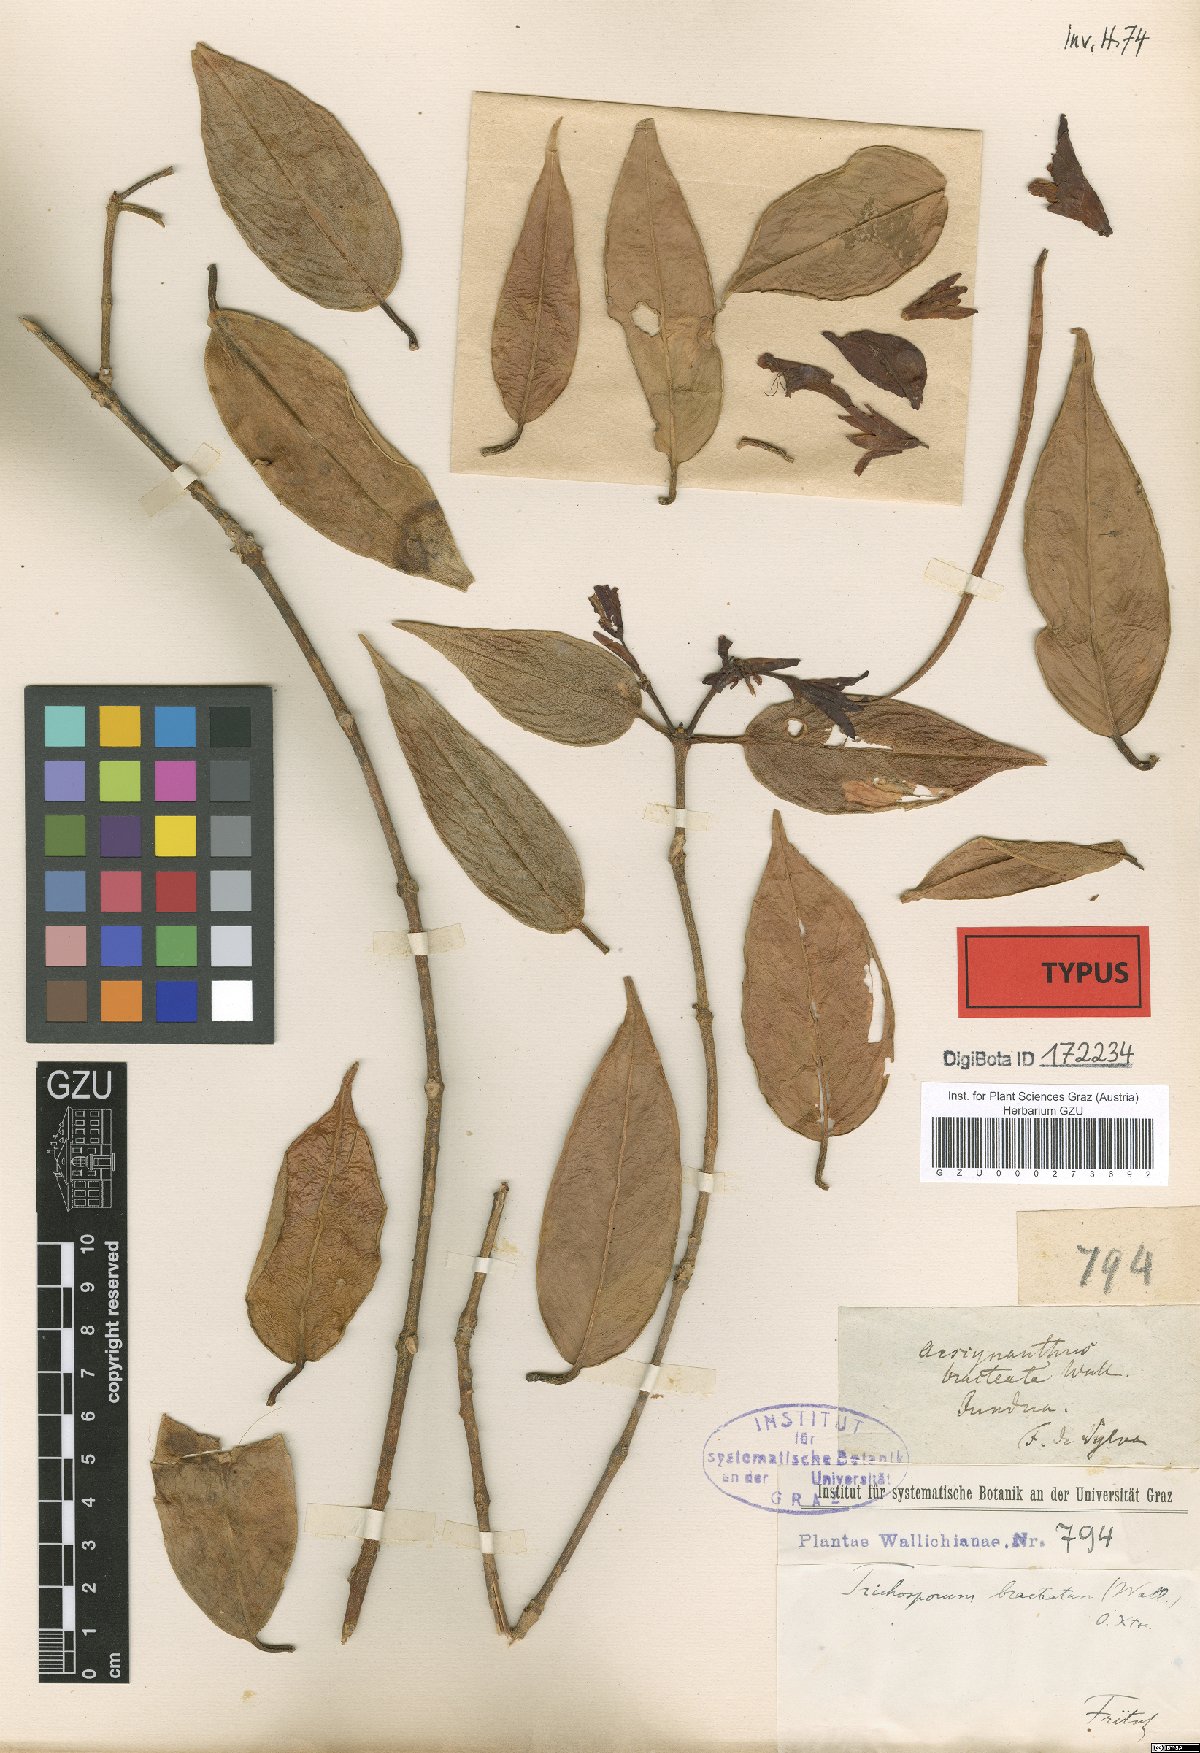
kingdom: Plantae
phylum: Tracheophyta
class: Magnoliopsida
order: Lamiales
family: Gesneriaceae
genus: Aeschynanthus
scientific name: Aeschynanthus bracteatus
